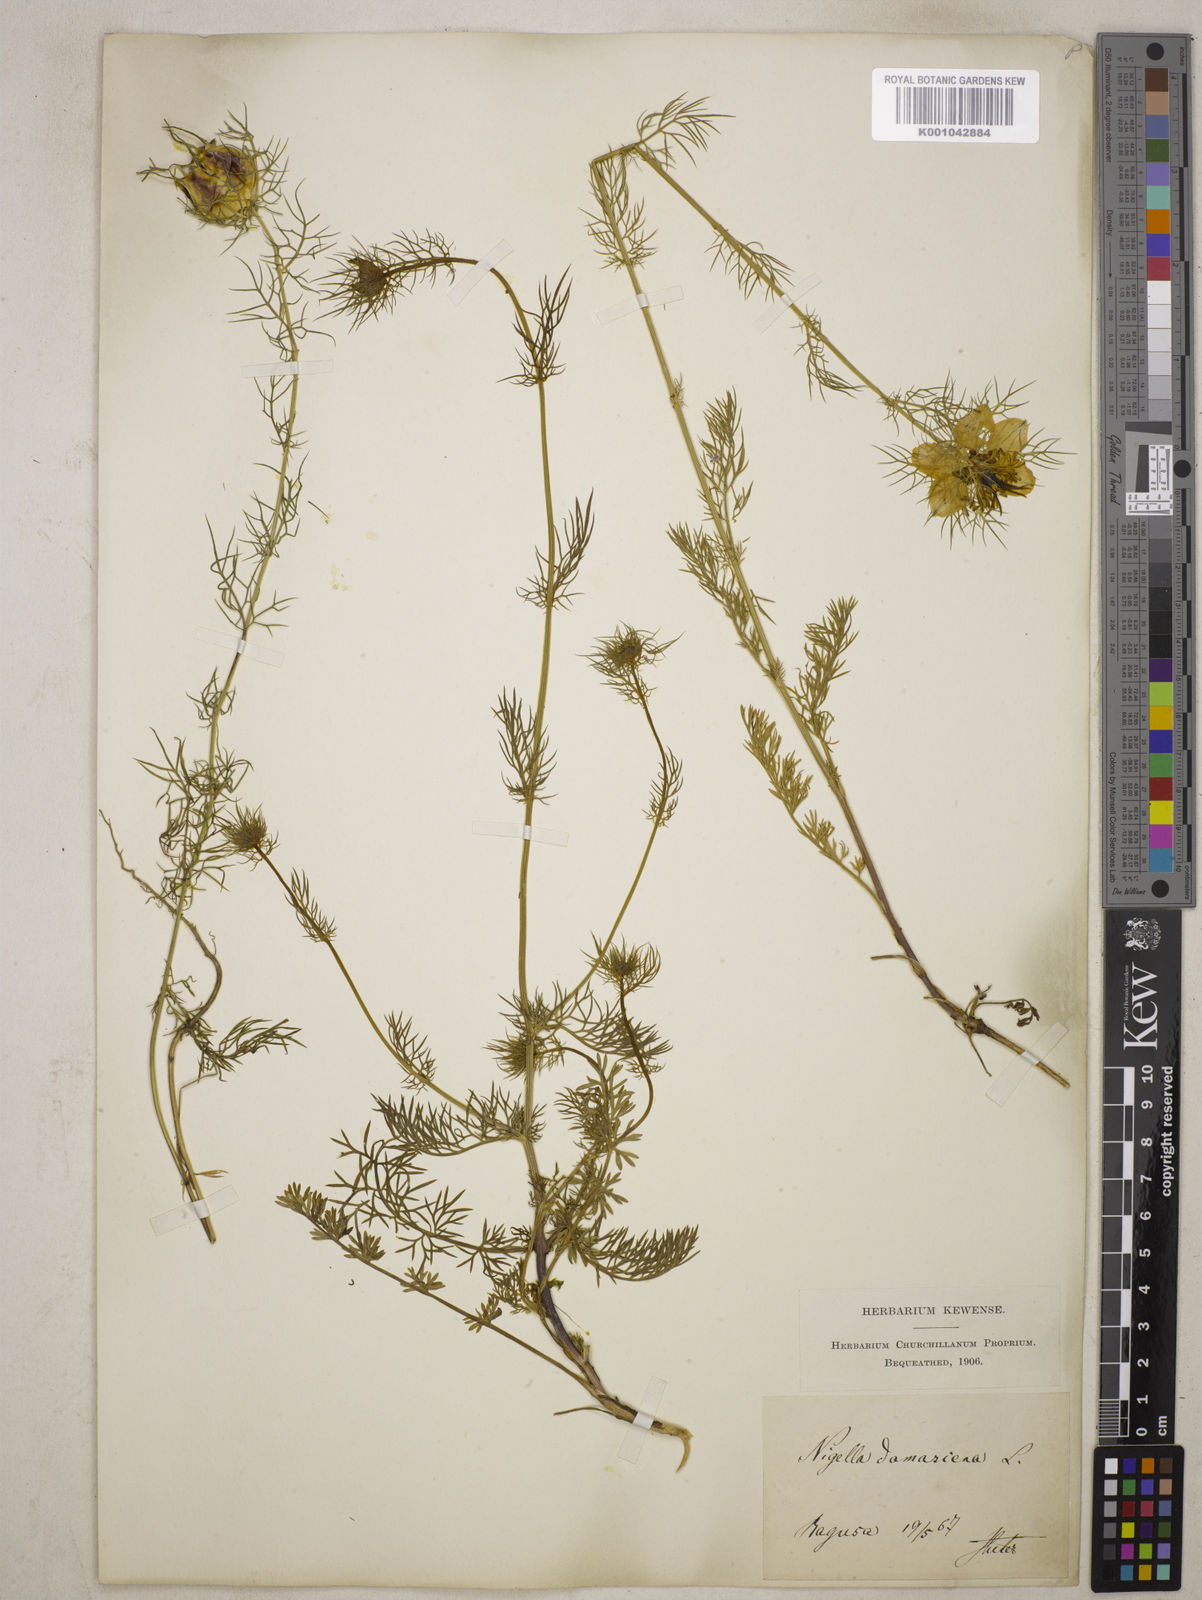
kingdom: Plantae
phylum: Tracheophyta
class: Magnoliopsida
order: Ranunculales
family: Ranunculaceae
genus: Nigella
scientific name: Nigella damascena
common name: Love-in-a-mist
